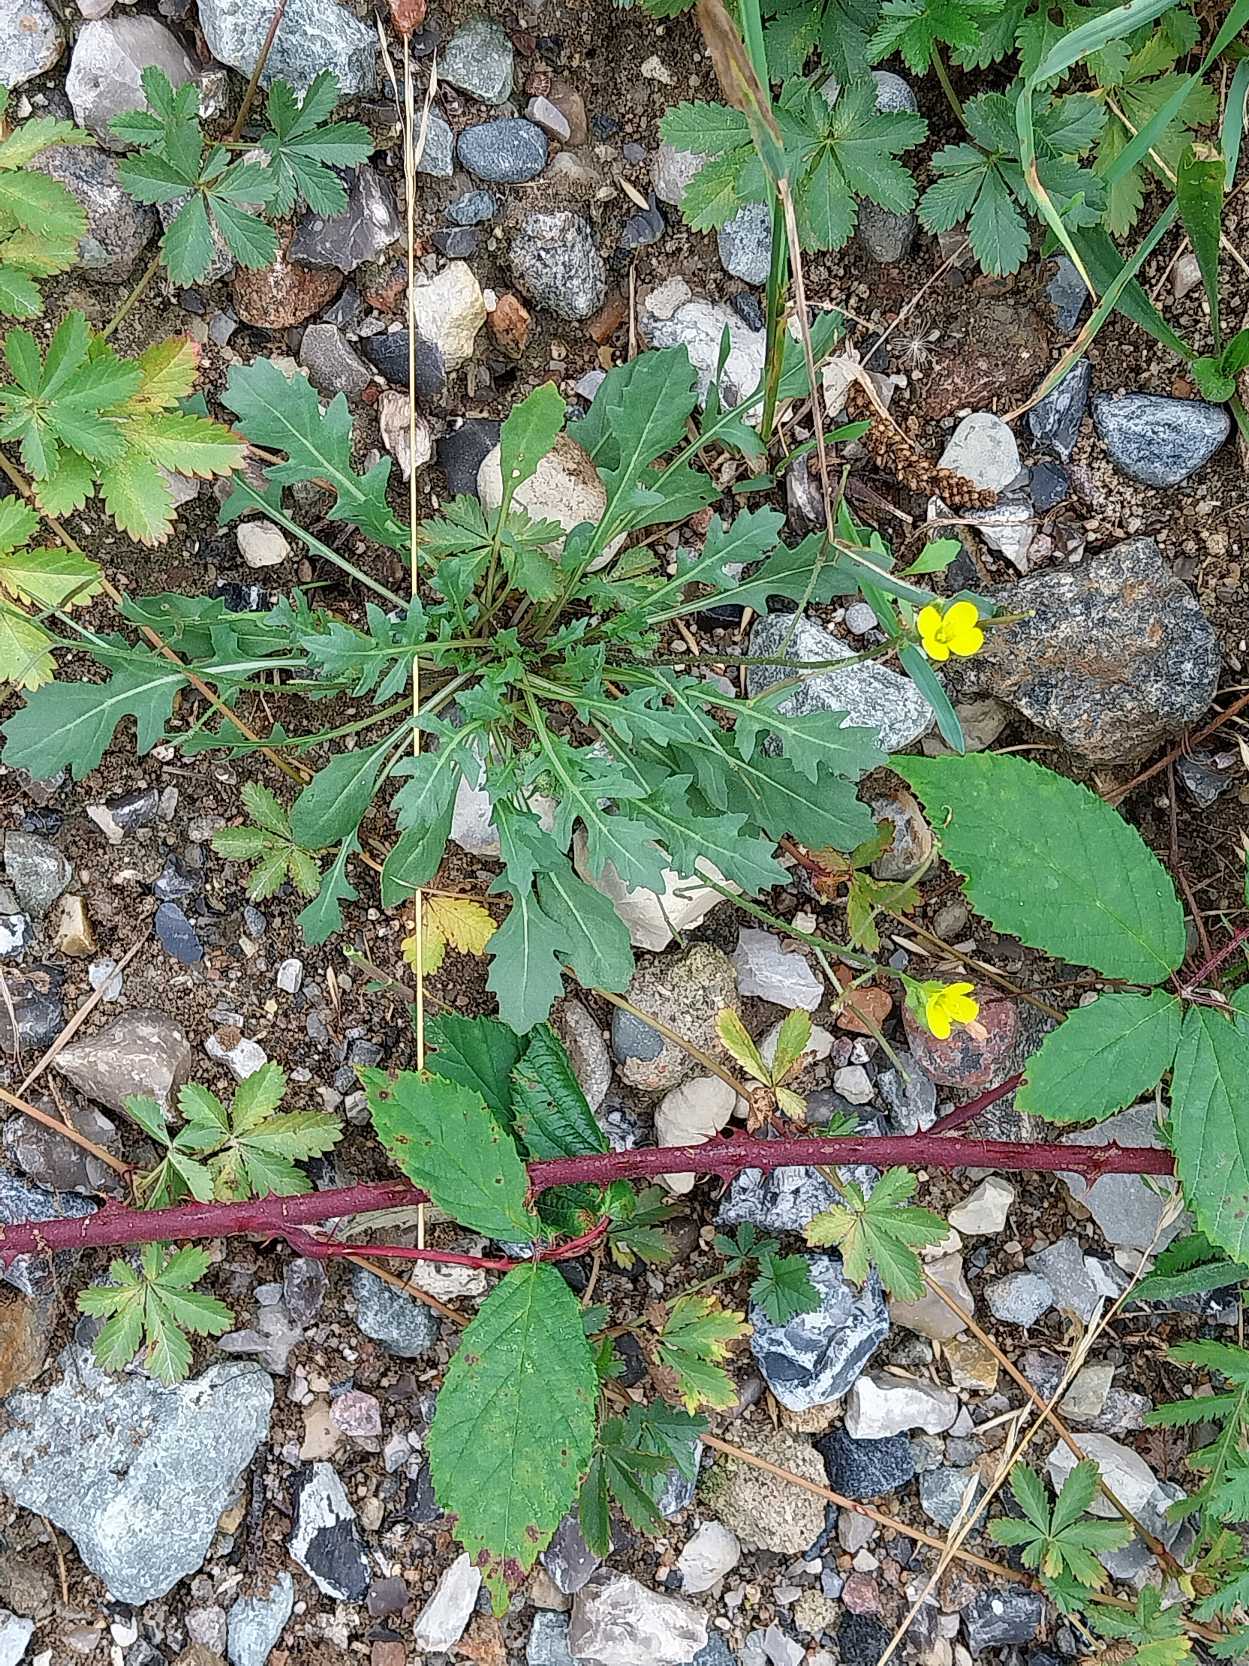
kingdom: Plantae
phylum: Tracheophyta
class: Magnoliopsida
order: Brassicales
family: Brassicaceae
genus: Diplotaxis
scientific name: Diplotaxis muralis
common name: Mursennep
